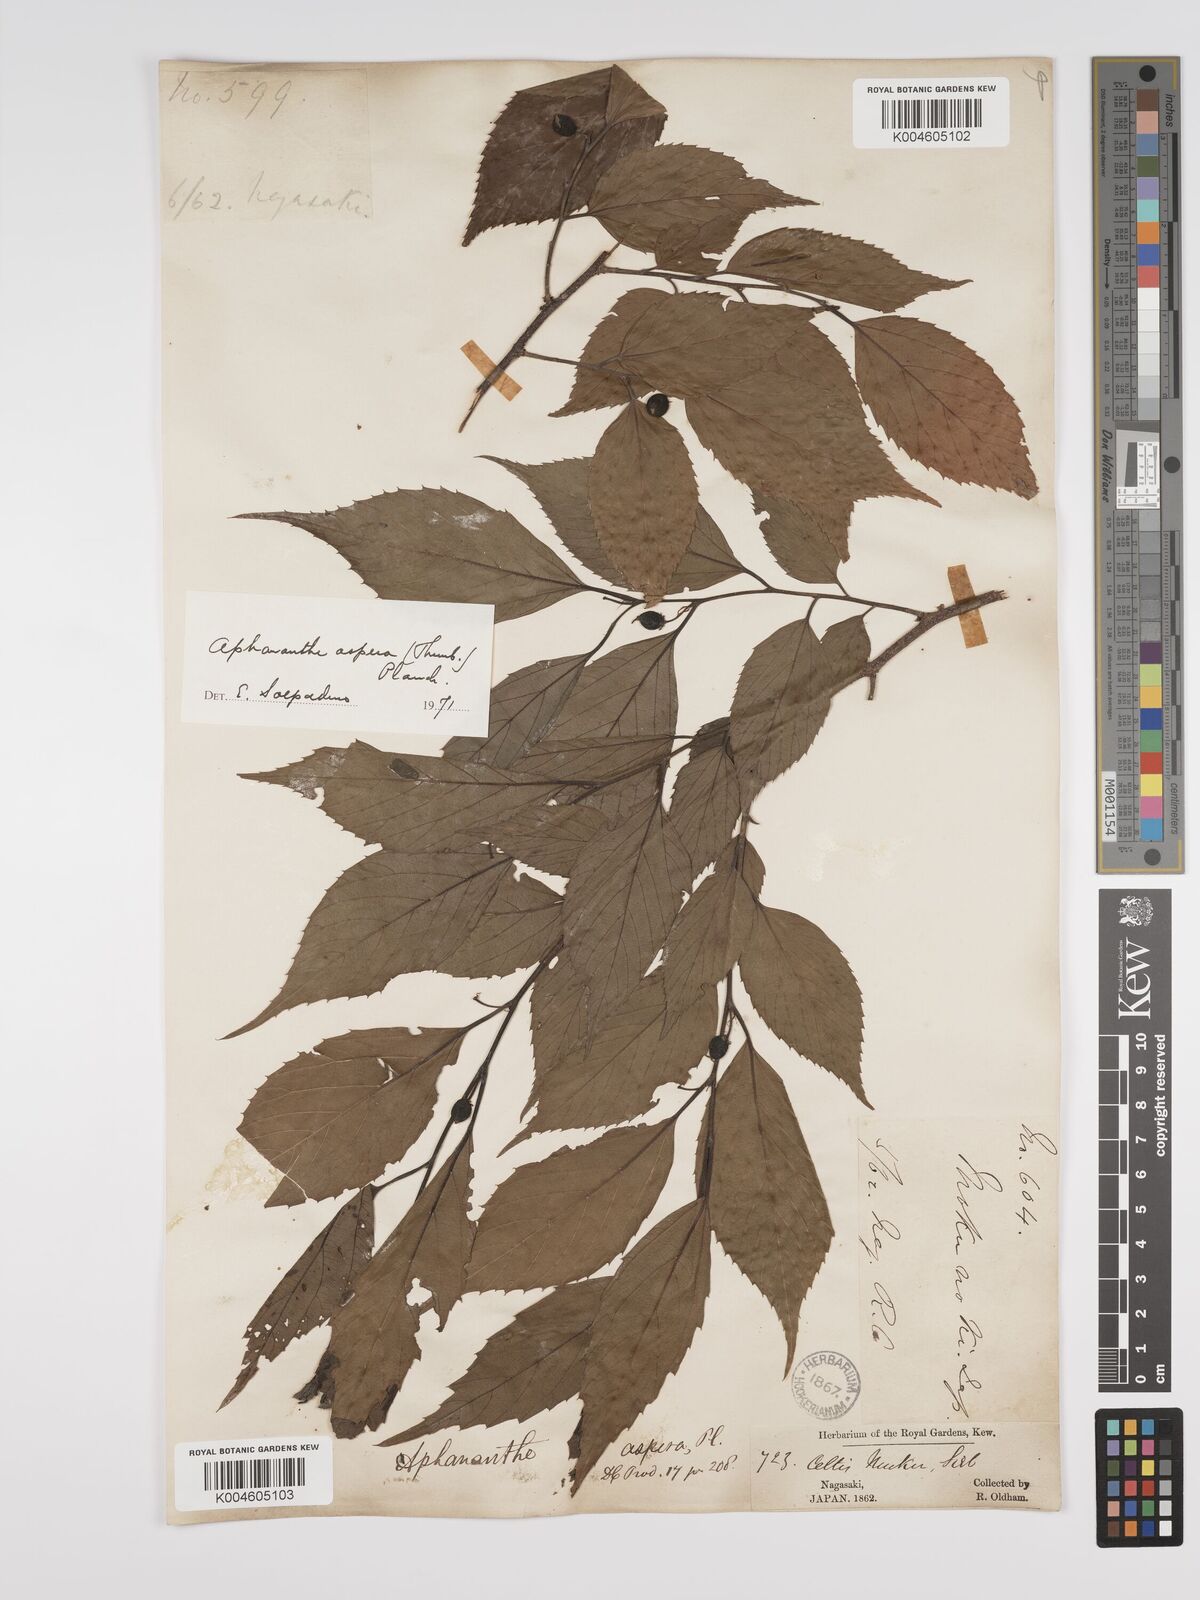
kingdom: Plantae
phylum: Tracheophyta
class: Magnoliopsida
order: Rosales
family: Cannabaceae
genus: Aphananthe
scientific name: Aphananthe aspera
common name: Mukutree
